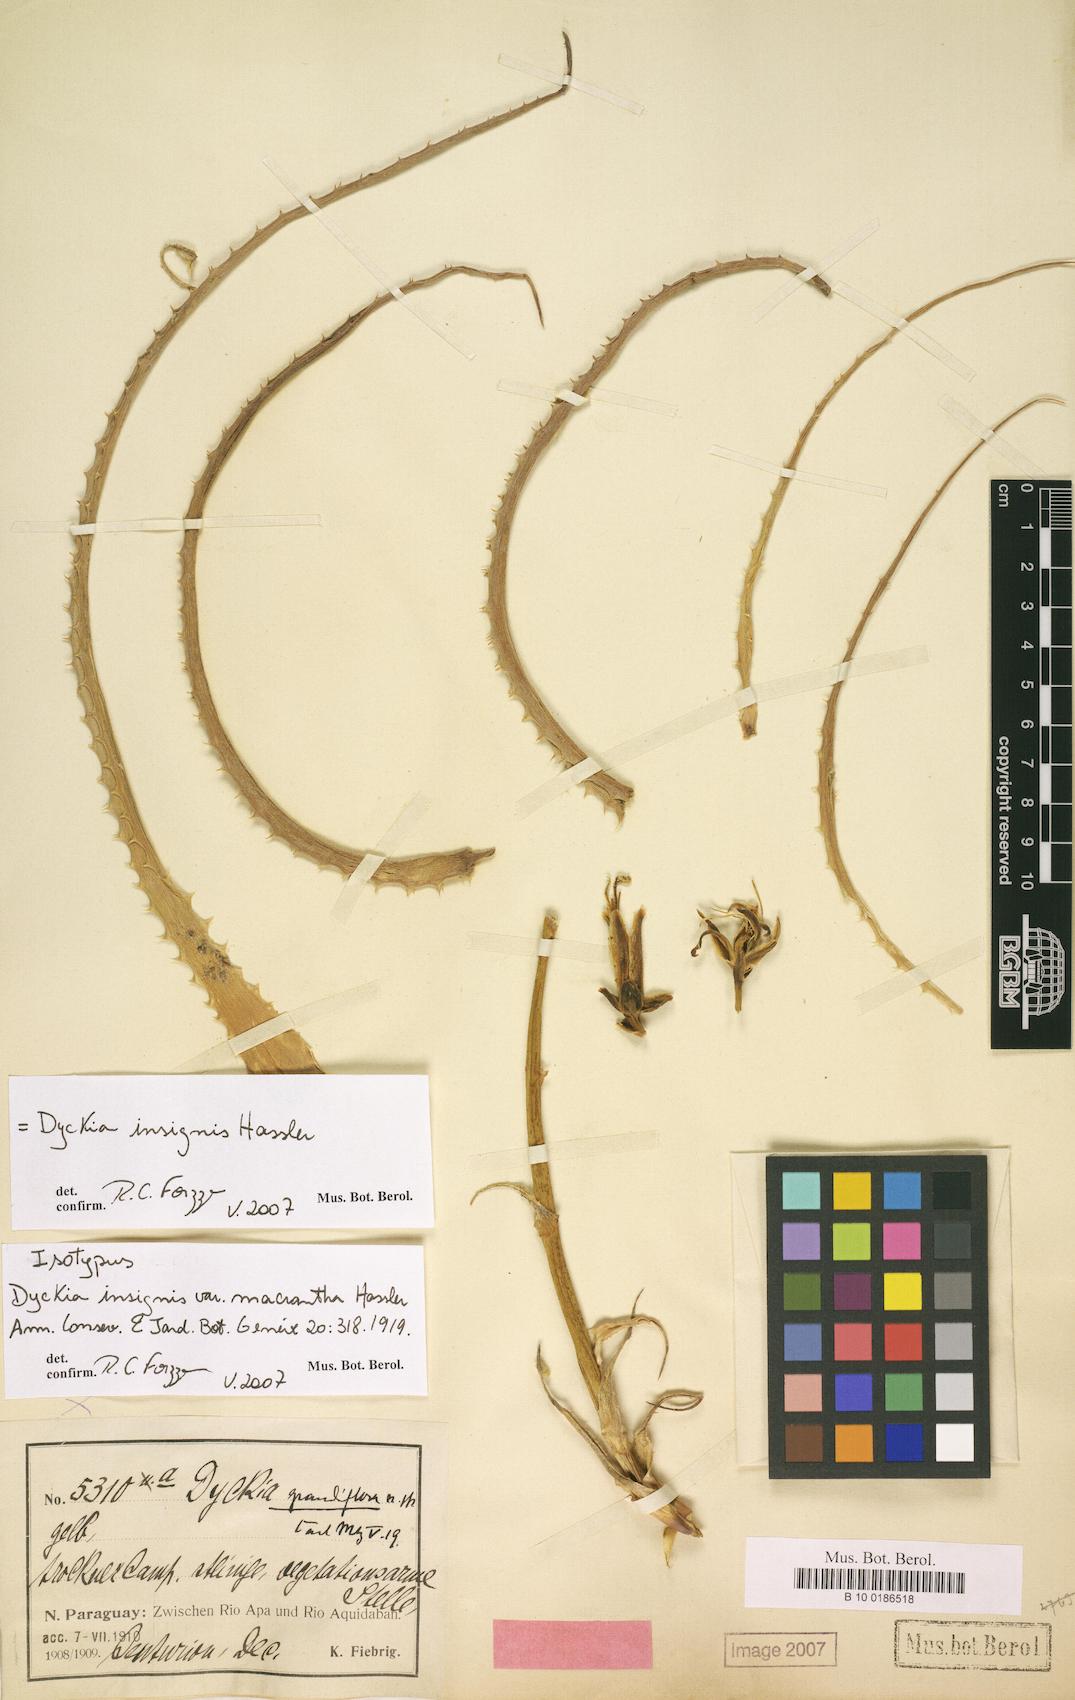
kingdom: Plantae
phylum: Tracheophyta
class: Liliopsida
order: Poales
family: Bromeliaceae
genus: Dyckia
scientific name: Dyckia insignis
